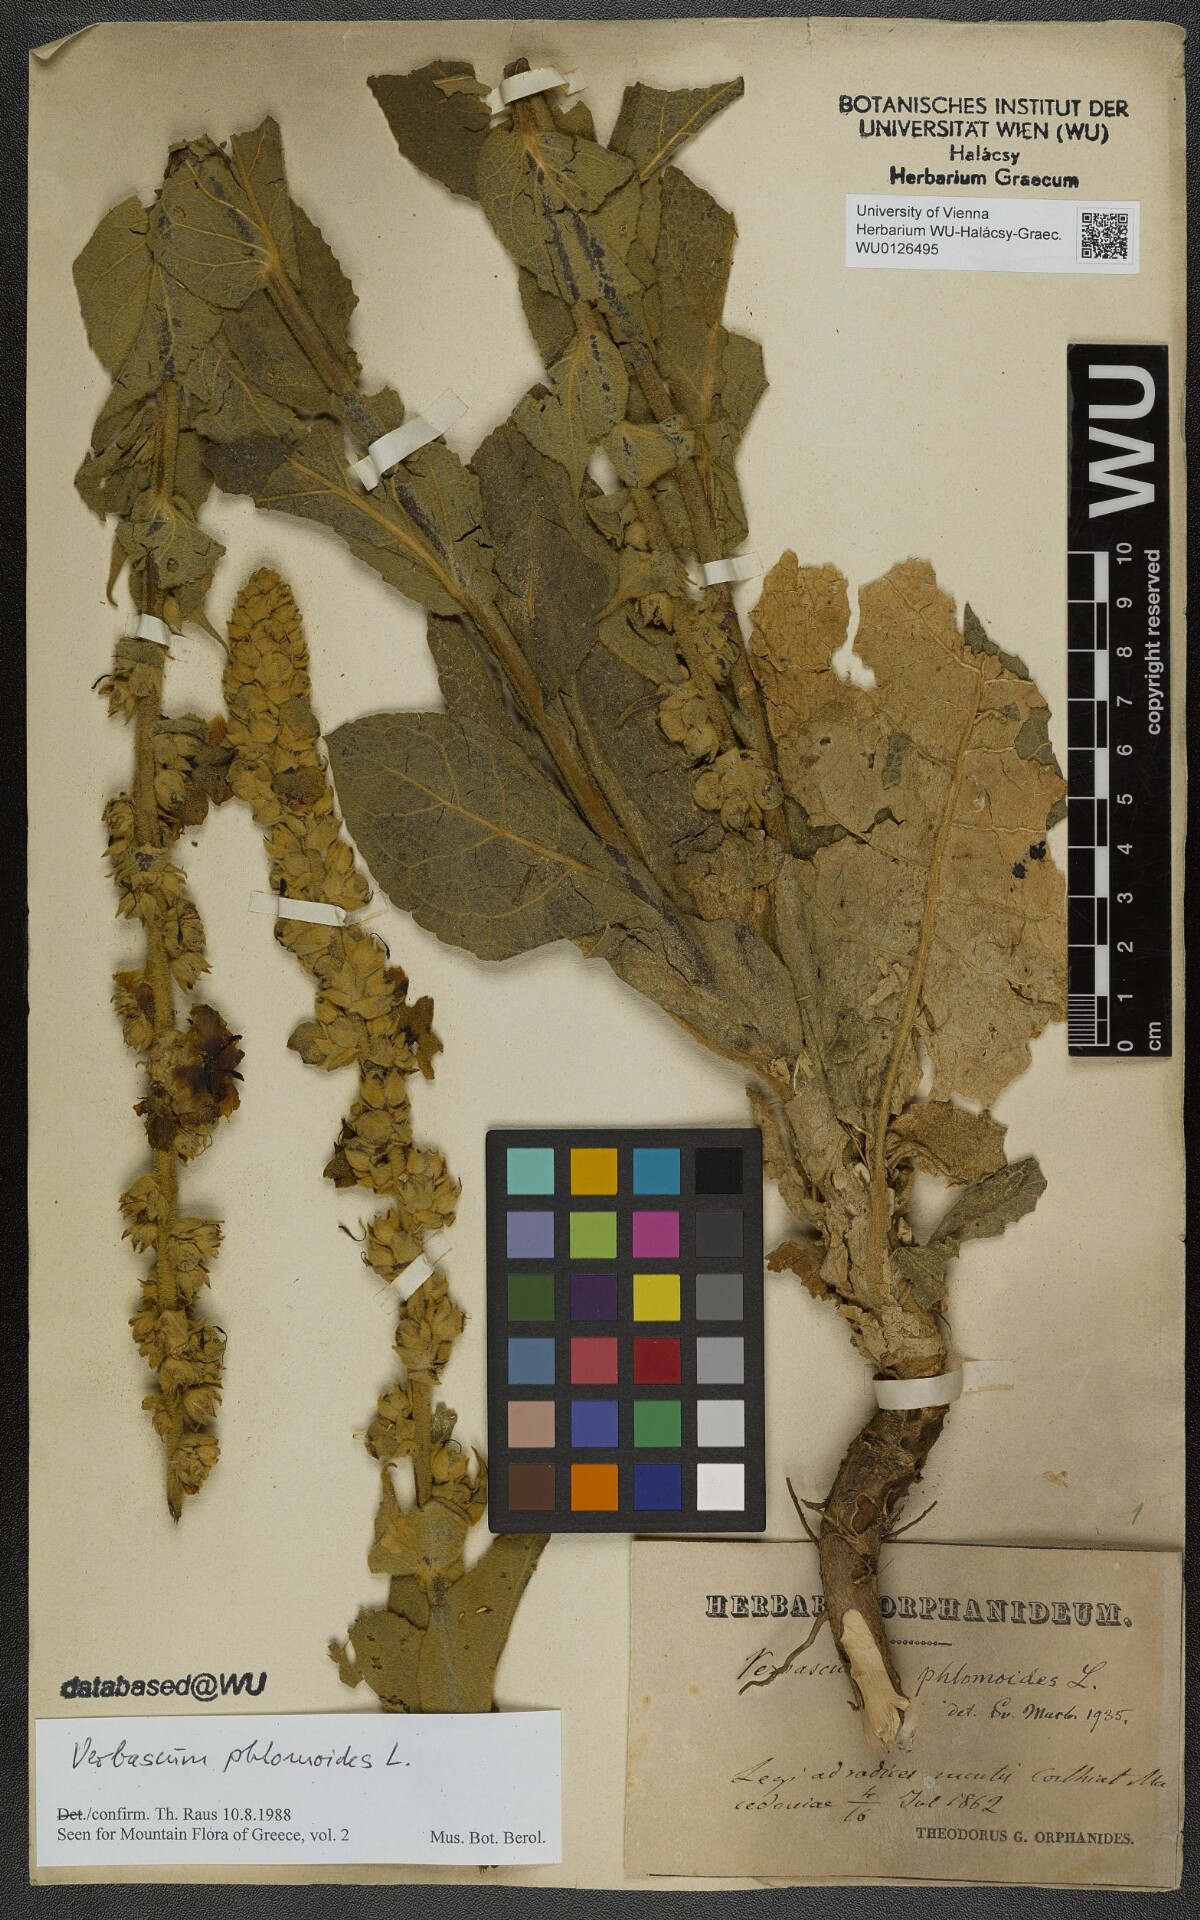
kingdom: Plantae
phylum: Tracheophyta
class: Magnoliopsida
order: Lamiales
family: Scrophulariaceae
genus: Verbascum
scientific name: Verbascum phlomoides
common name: Orange mullein
